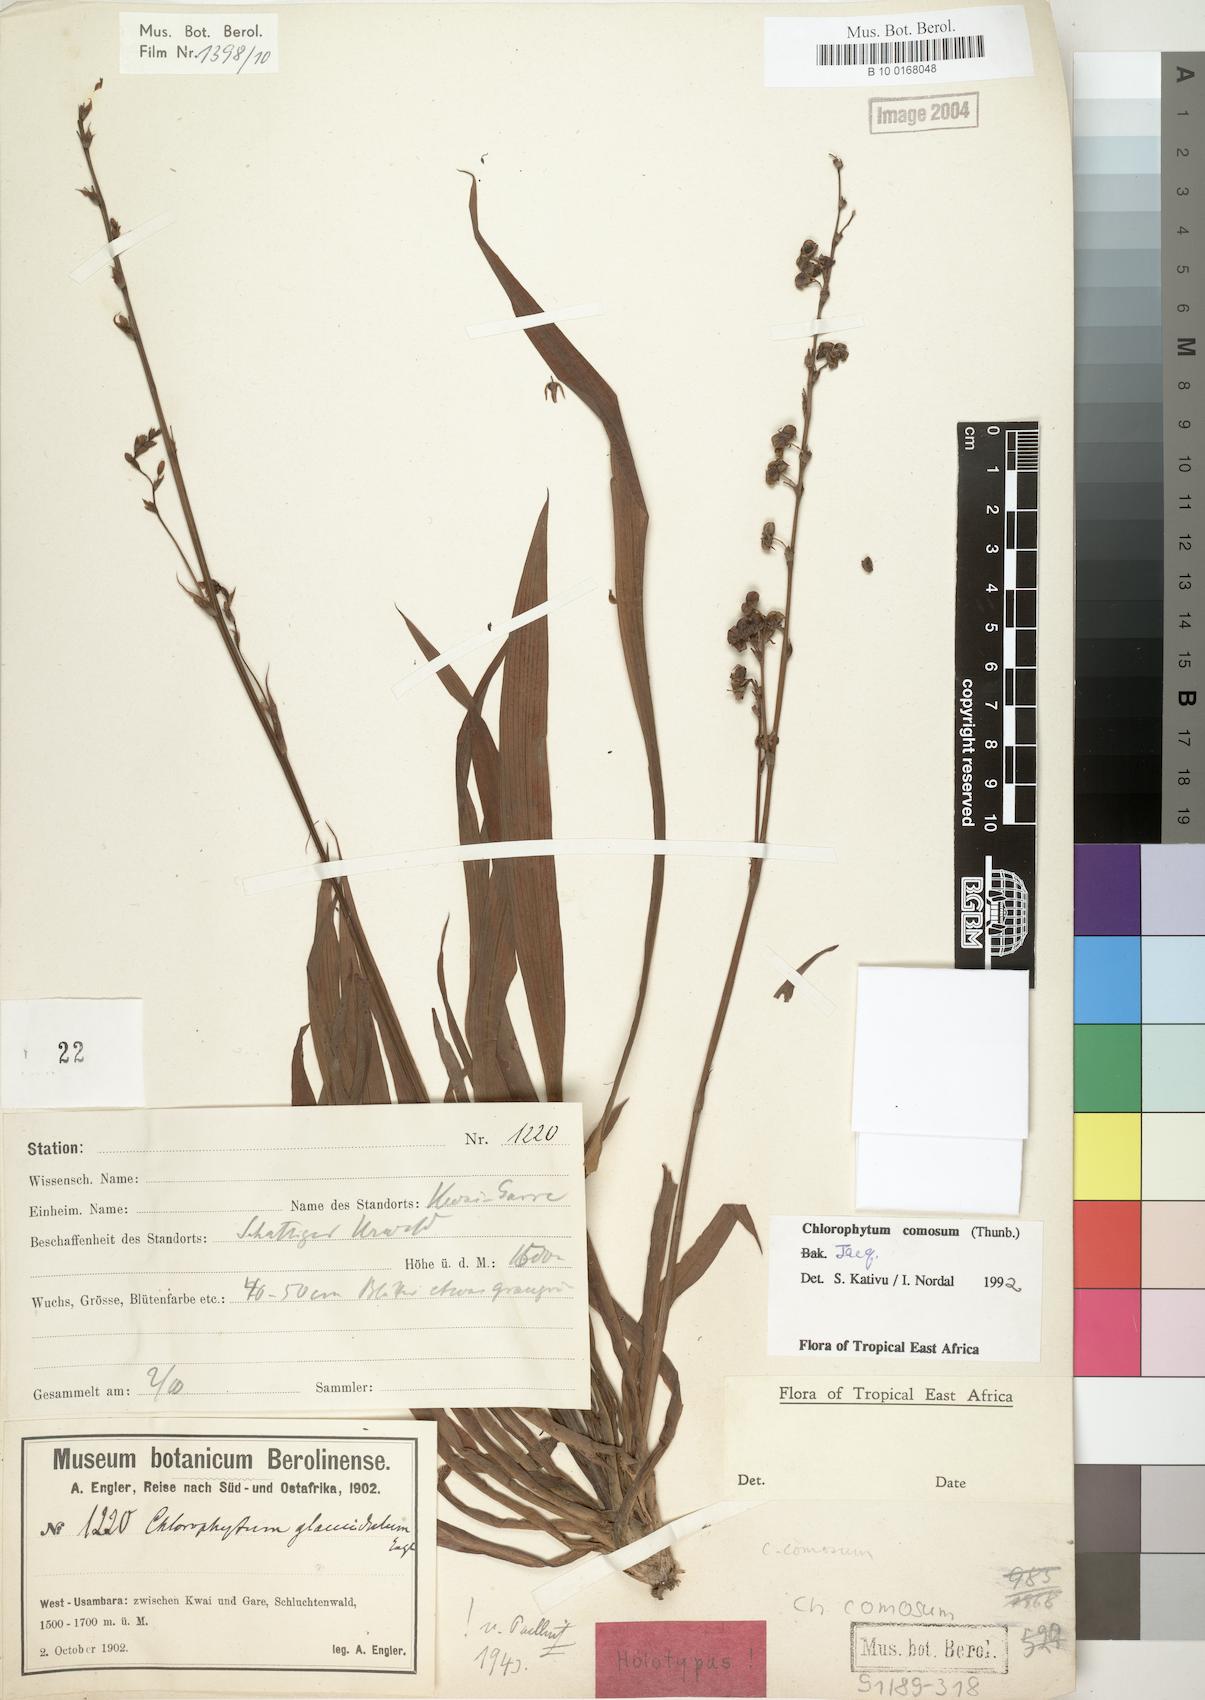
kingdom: Plantae
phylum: Tracheophyta
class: Liliopsida
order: Asparagales
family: Asparagaceae
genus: Chlorophytum
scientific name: Chlorophytum comosum
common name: Spider plant
